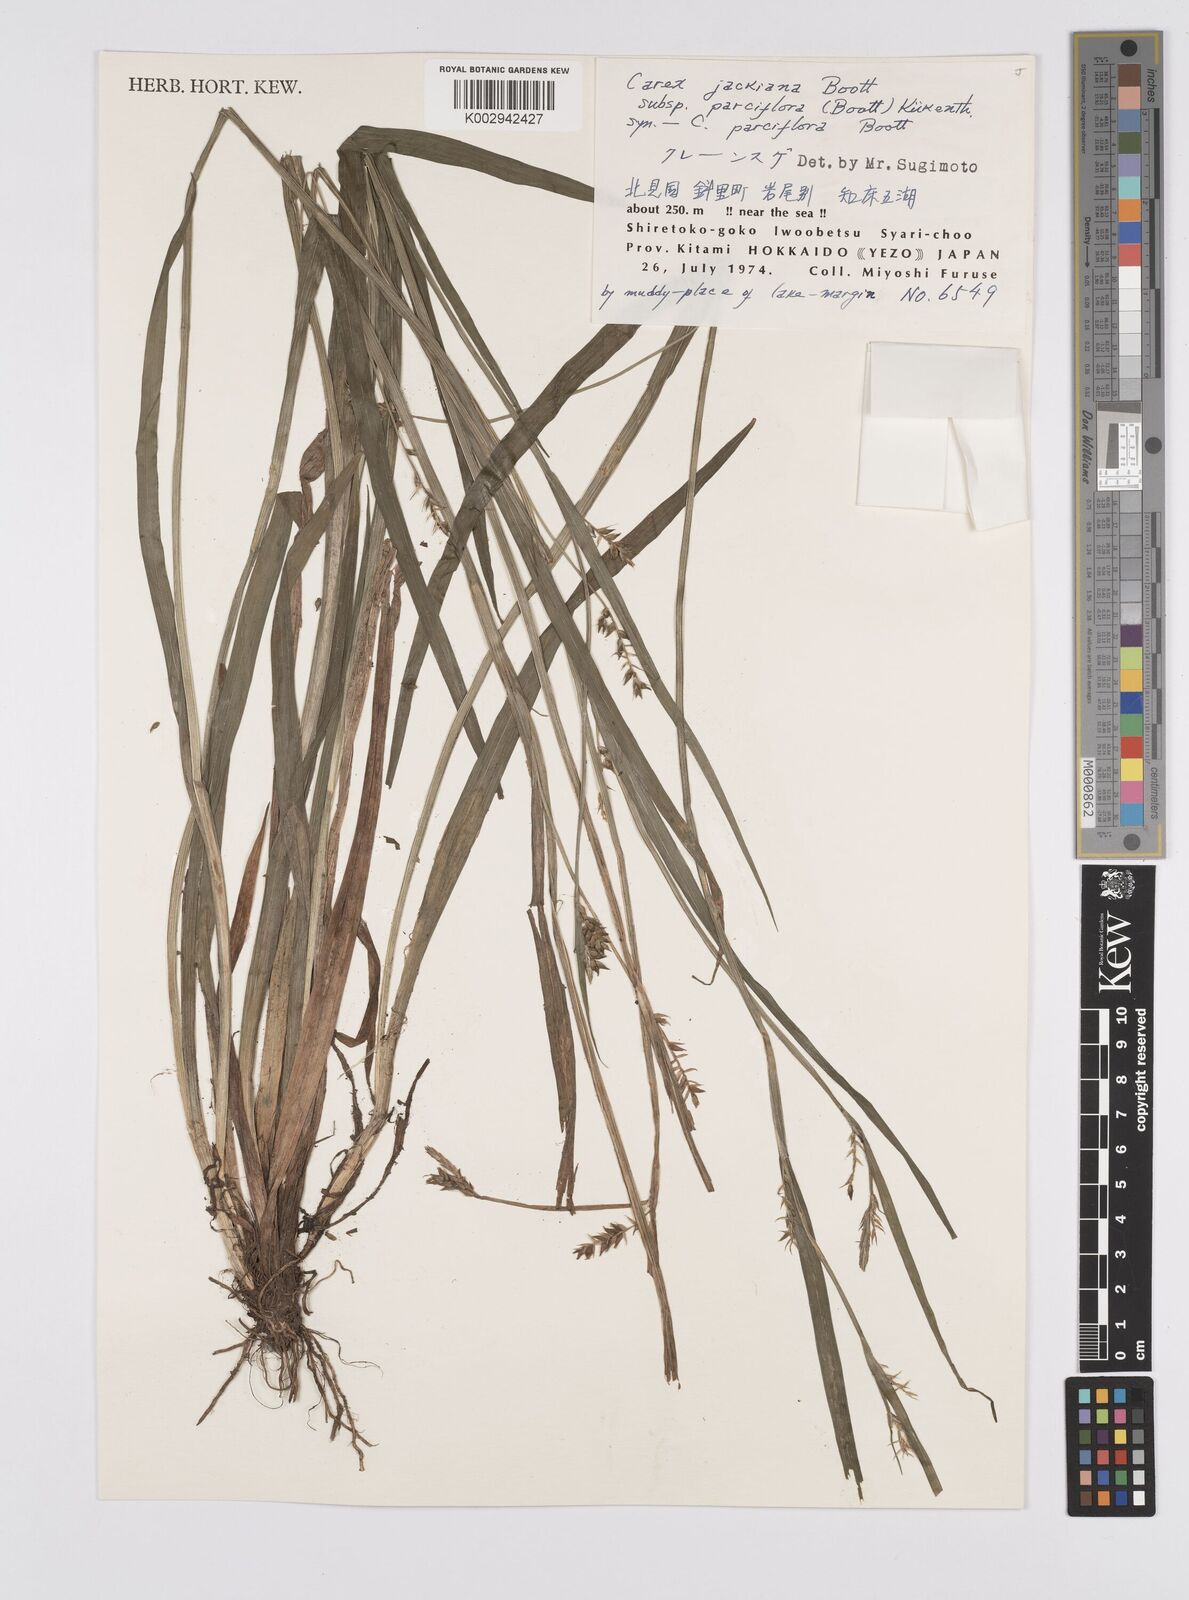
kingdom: Plantae
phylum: Tracheophyta
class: Liliopsida
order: Poales
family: Cyperaceae
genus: Carex
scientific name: Carex parciflora
